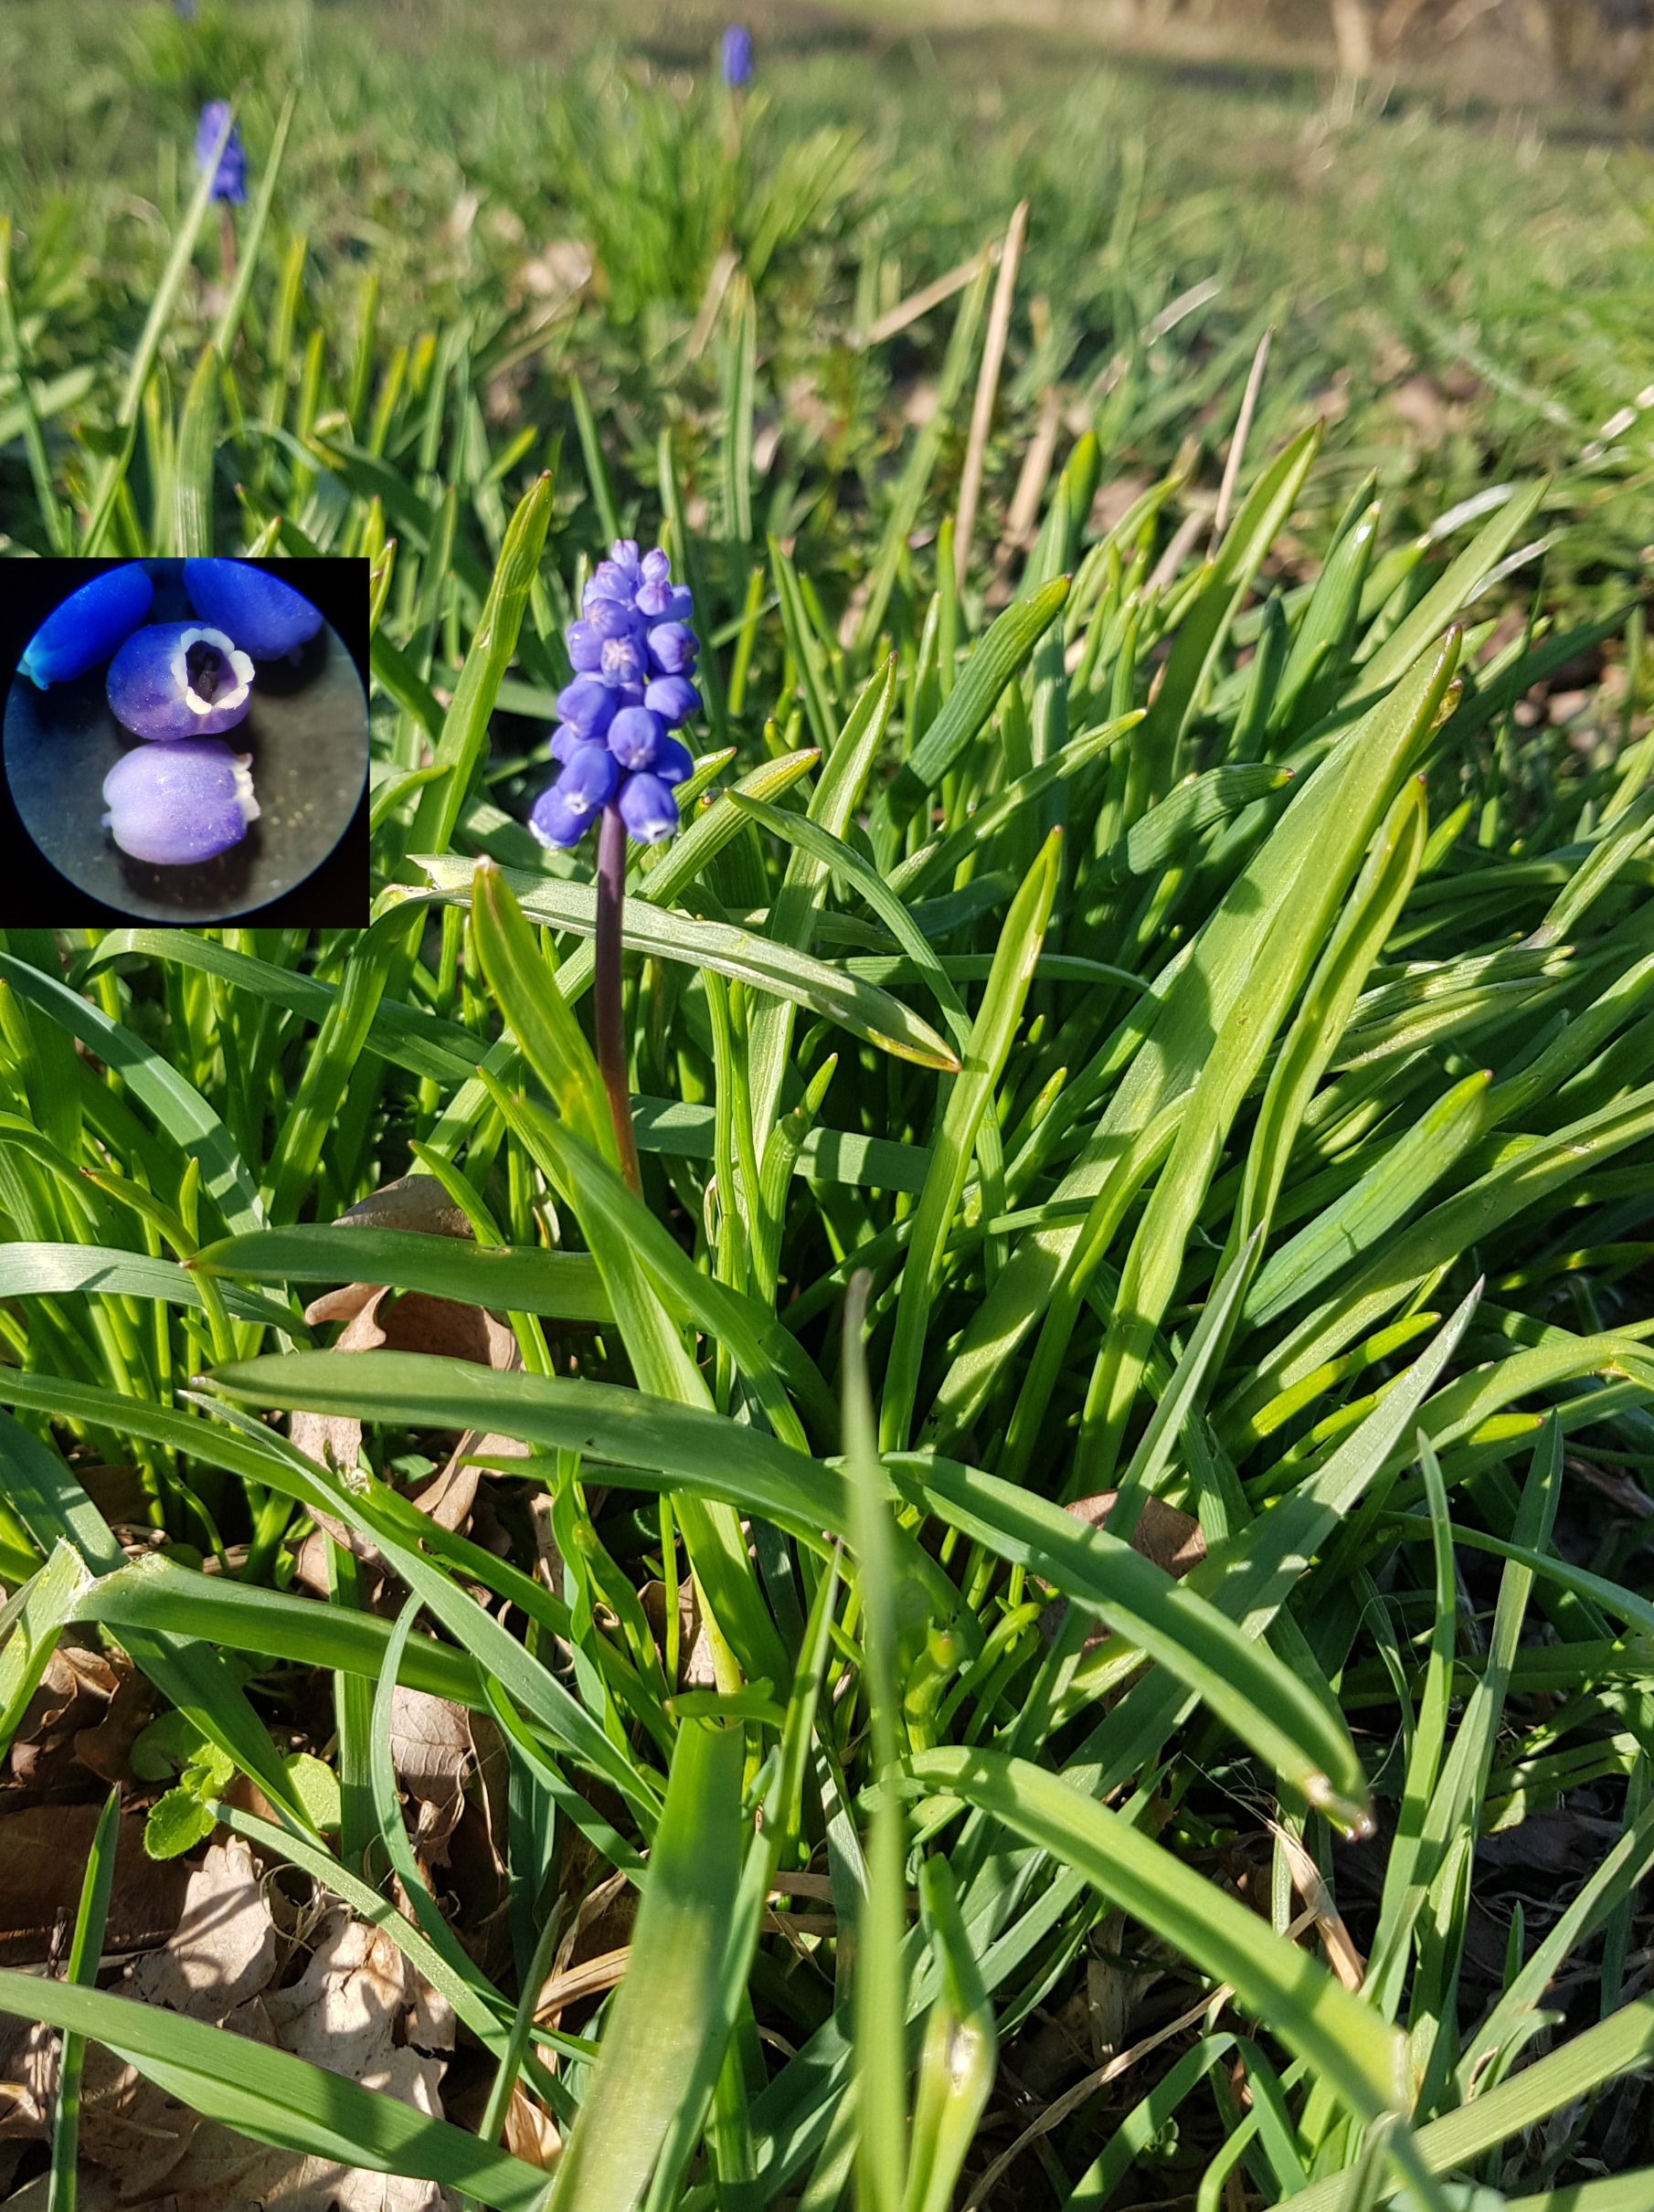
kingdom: Plantae
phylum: Tracheophyta
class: Liliopsida
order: Asparagales
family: Asparagaceae
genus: Muscari
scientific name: Muscari botryoides
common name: Perlehyacint
